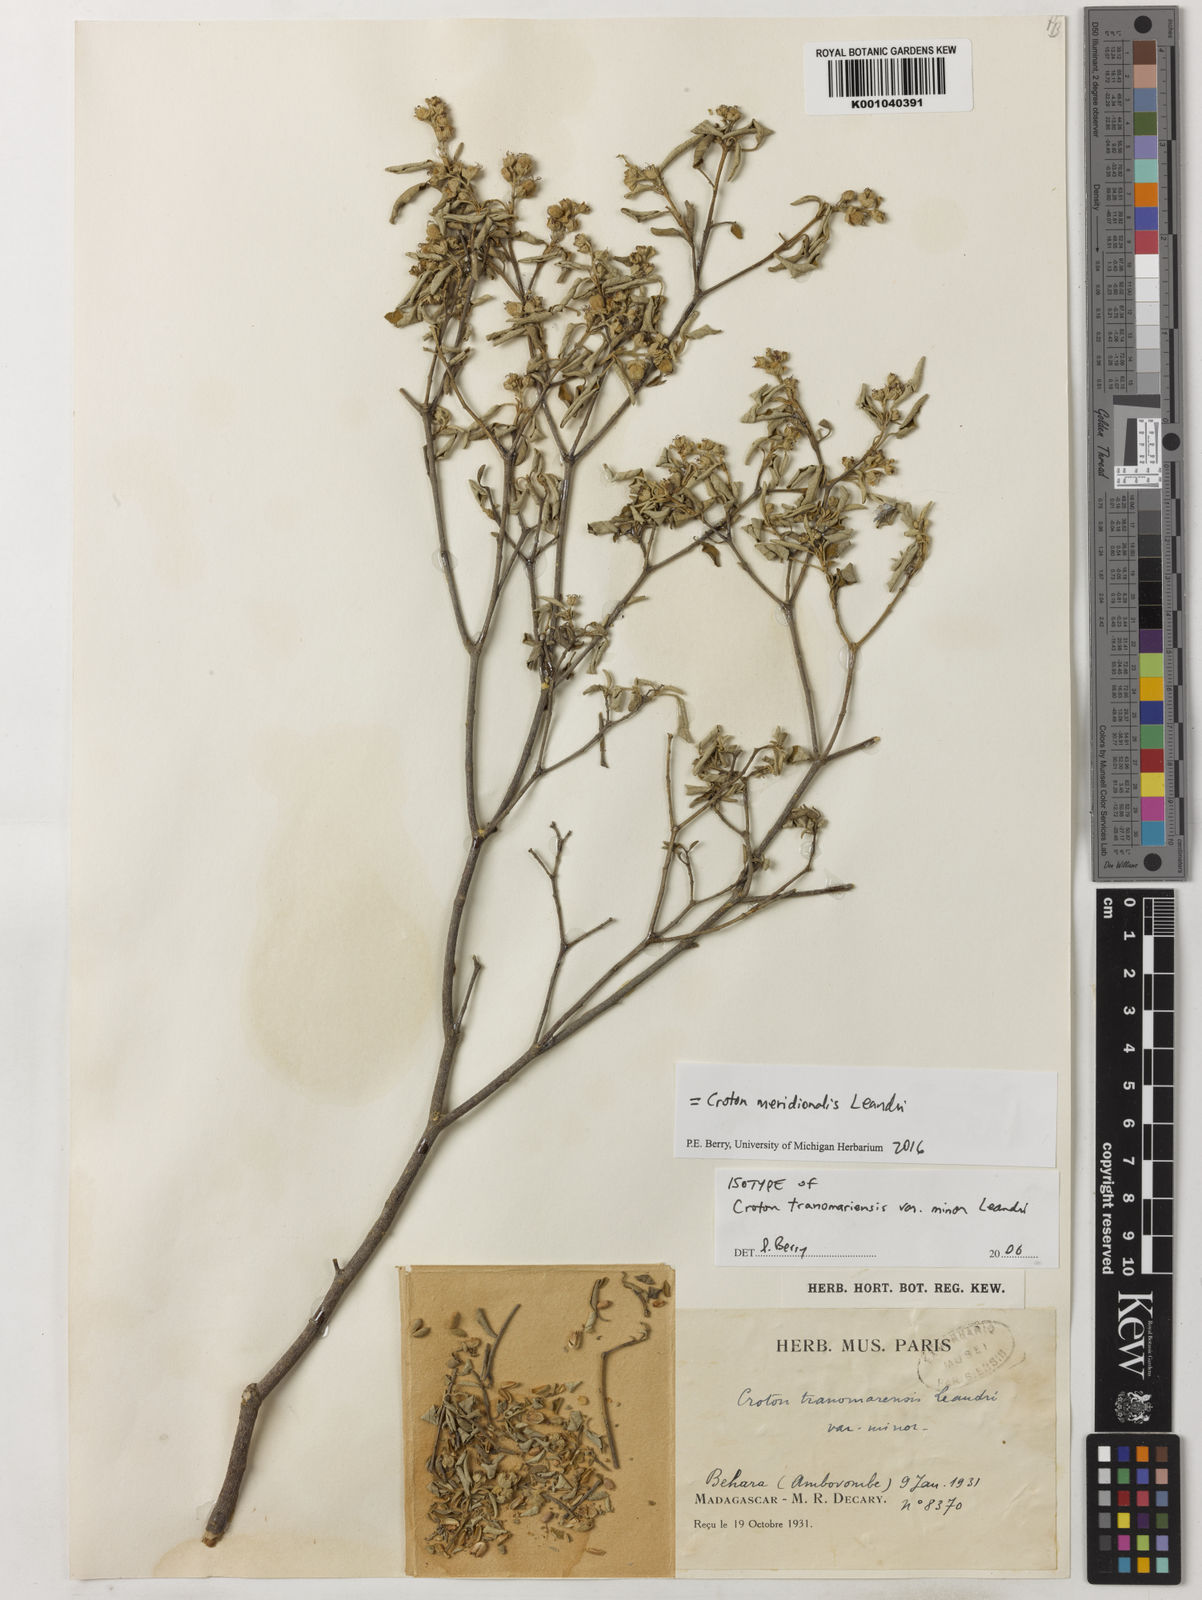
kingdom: Plantae
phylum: Tracheophyta
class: Magnoliopsida
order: Malpighiales
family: Euphorbiaceae
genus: Croton
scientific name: Croton meridionalis
